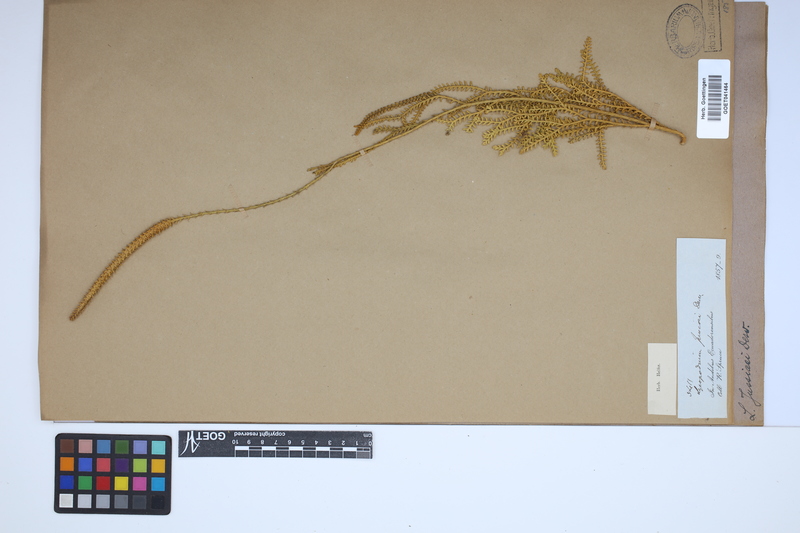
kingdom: Plantae
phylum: Tracheophyta
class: Lycopodiopsida
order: Lycopodiales
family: Lycopodiaceae
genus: Diphasium
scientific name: Diphasium jussiaei
